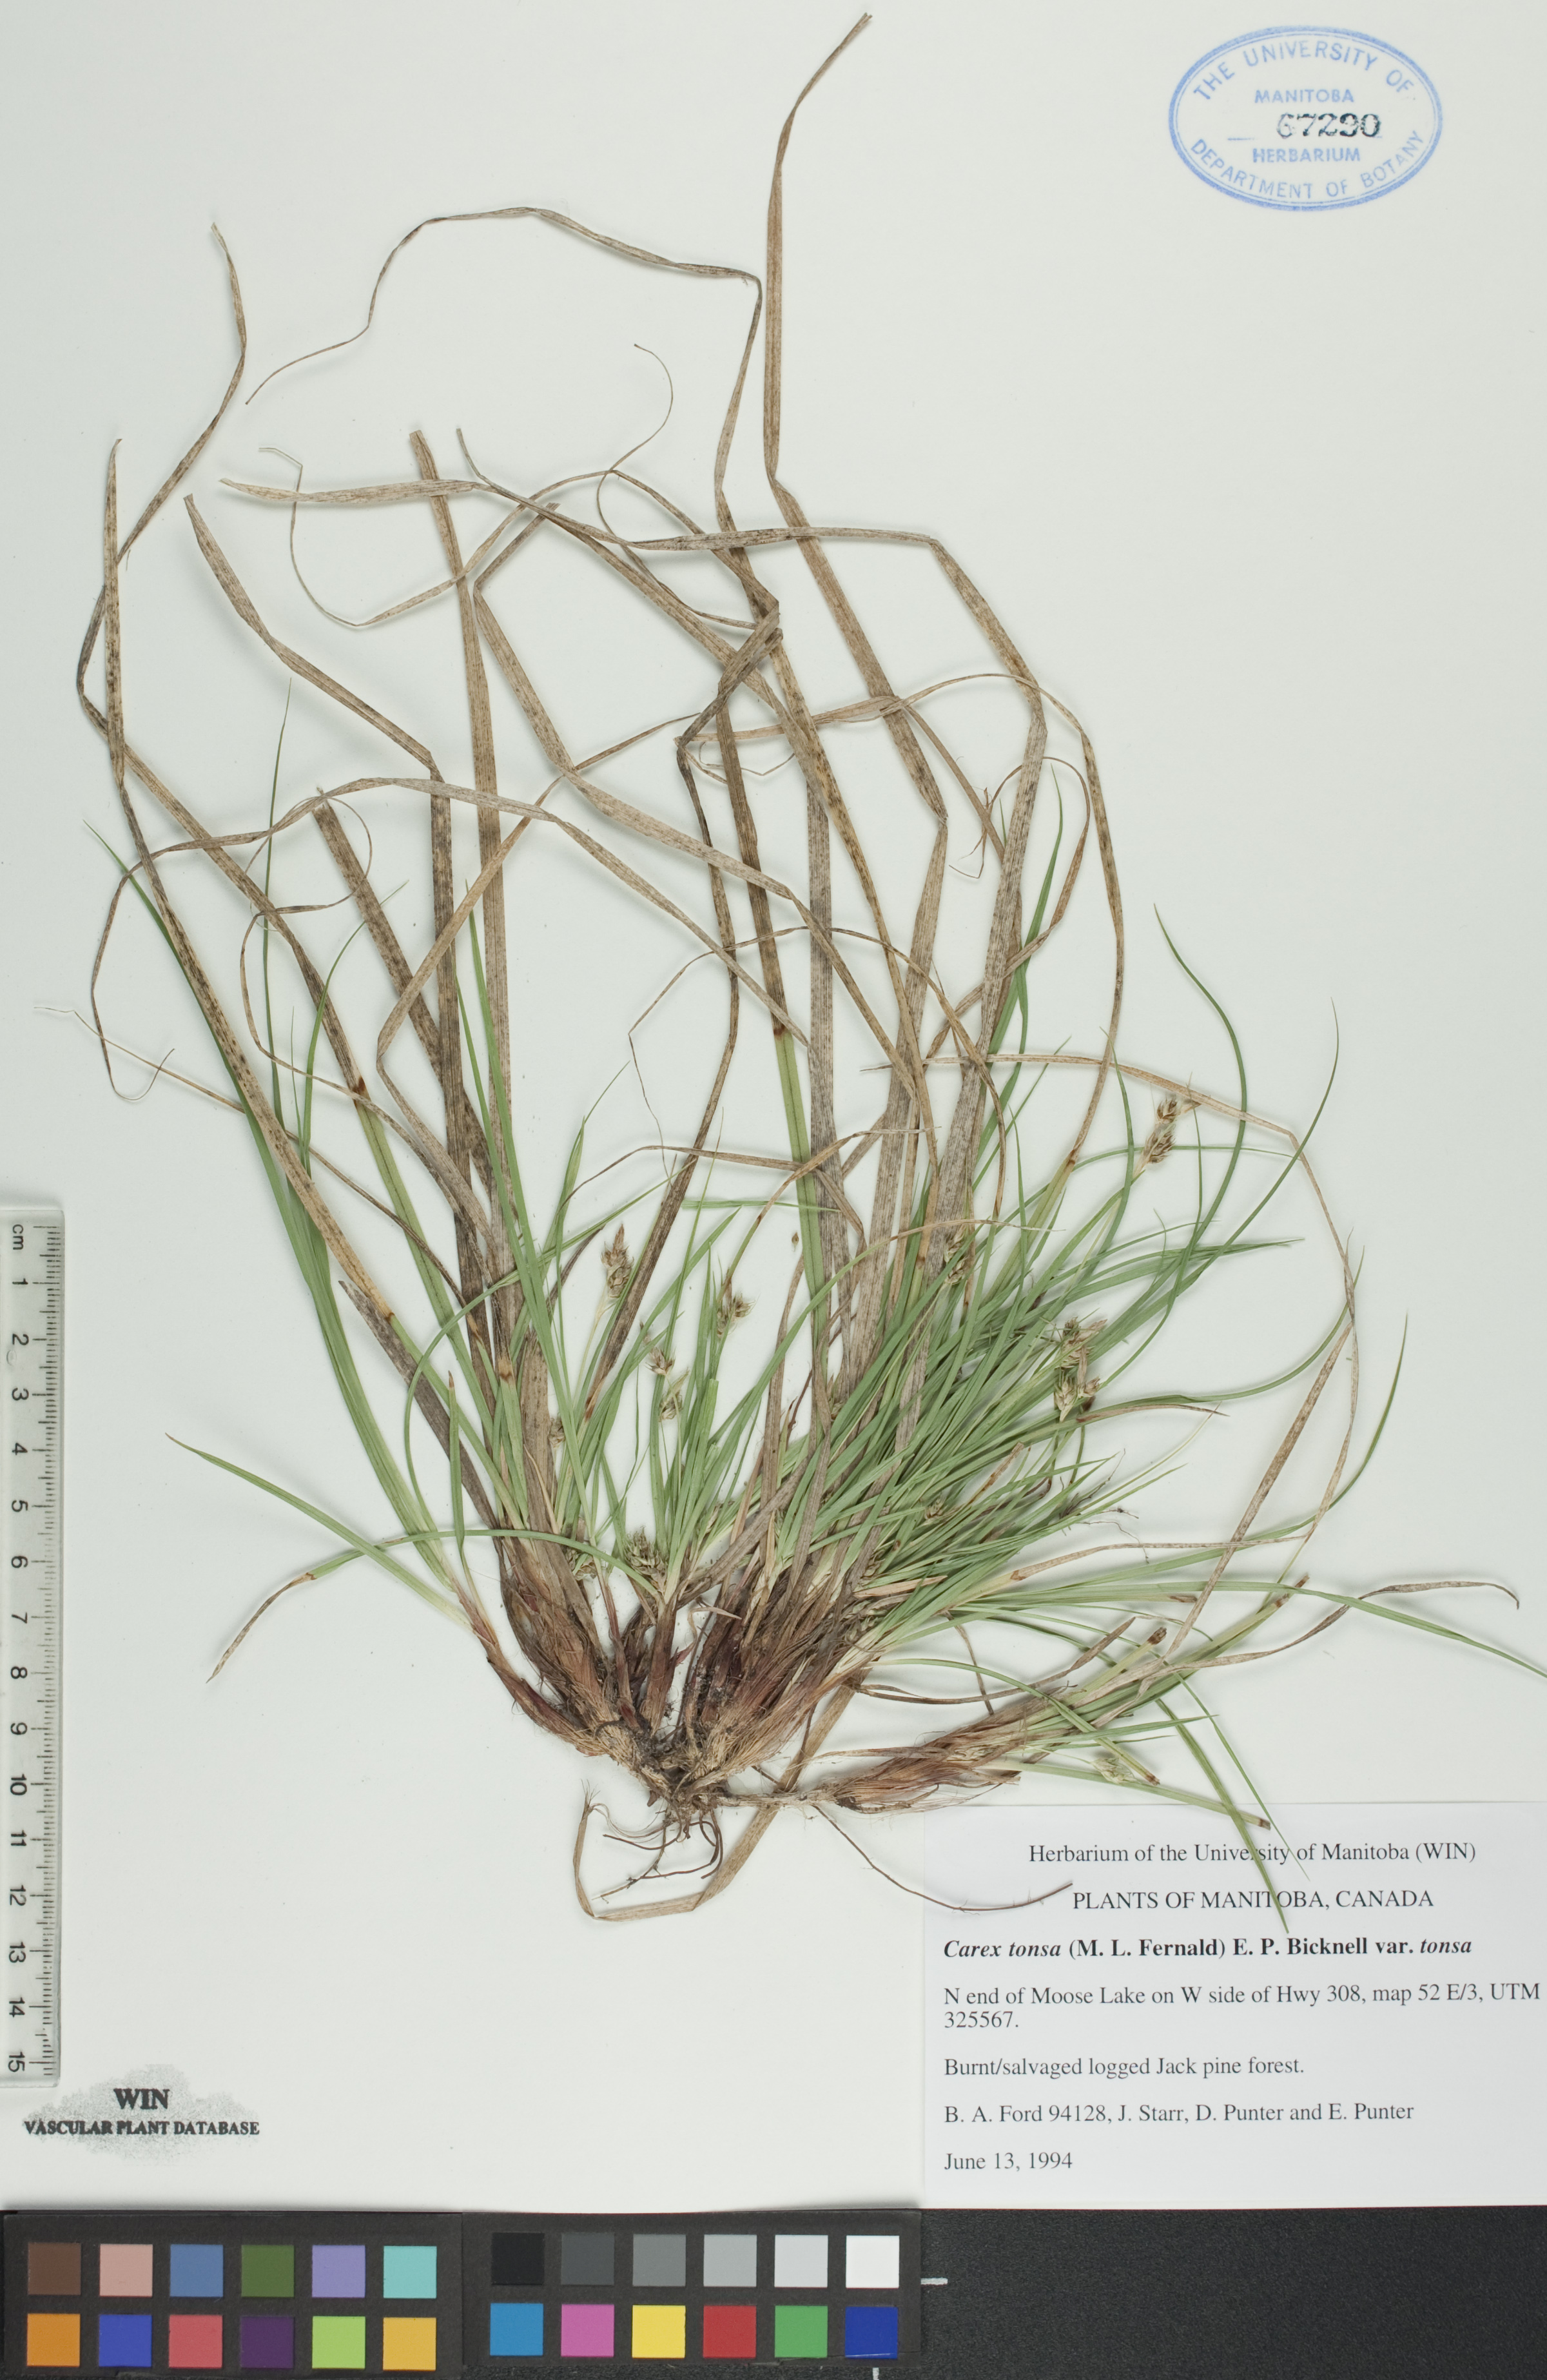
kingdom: Plantae
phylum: Tracheophyta
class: Liliopsida
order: Poales
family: Cyperaceae
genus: Carex
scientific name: Carex tonsa
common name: Bald sedge
